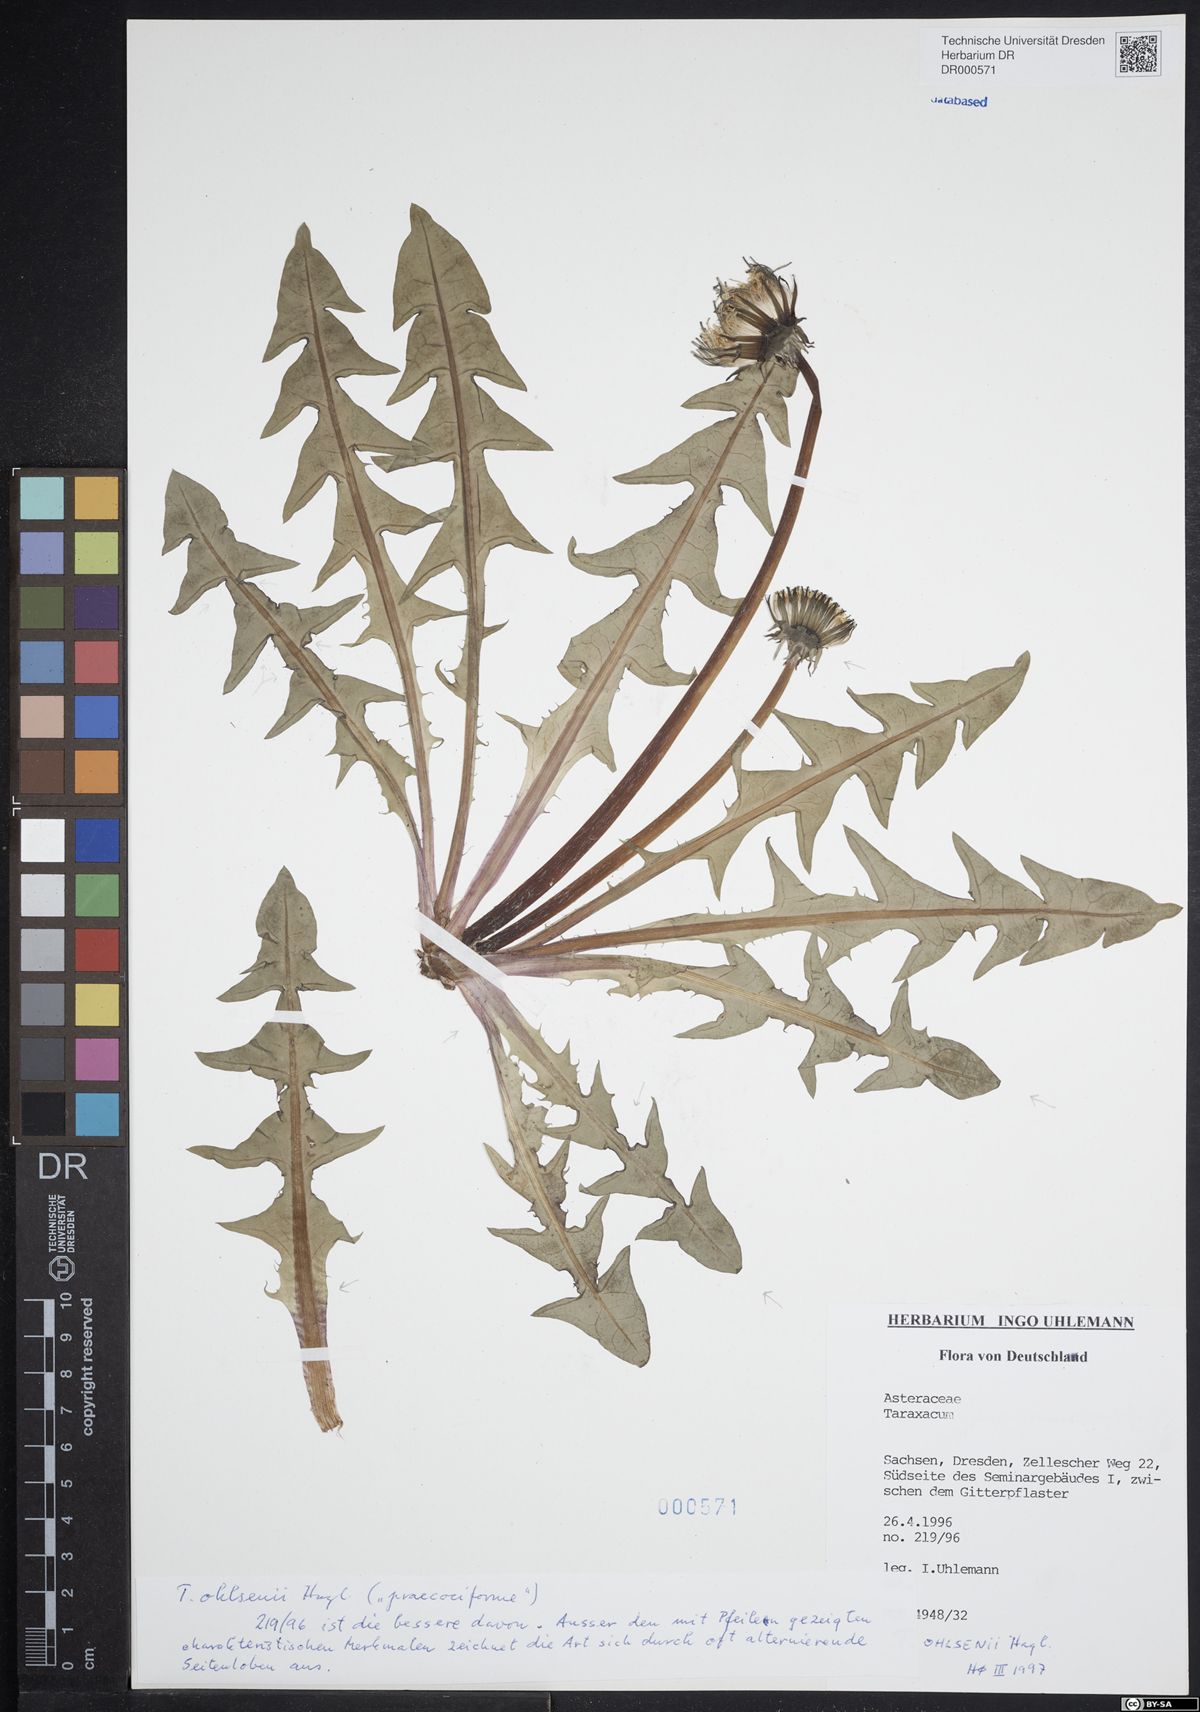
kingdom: Plantae
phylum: Tracheophyta
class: Magnoliopsida
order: Asterales
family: Asteraceae
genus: Taraxacum
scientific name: Taraxacum ohlsenii
